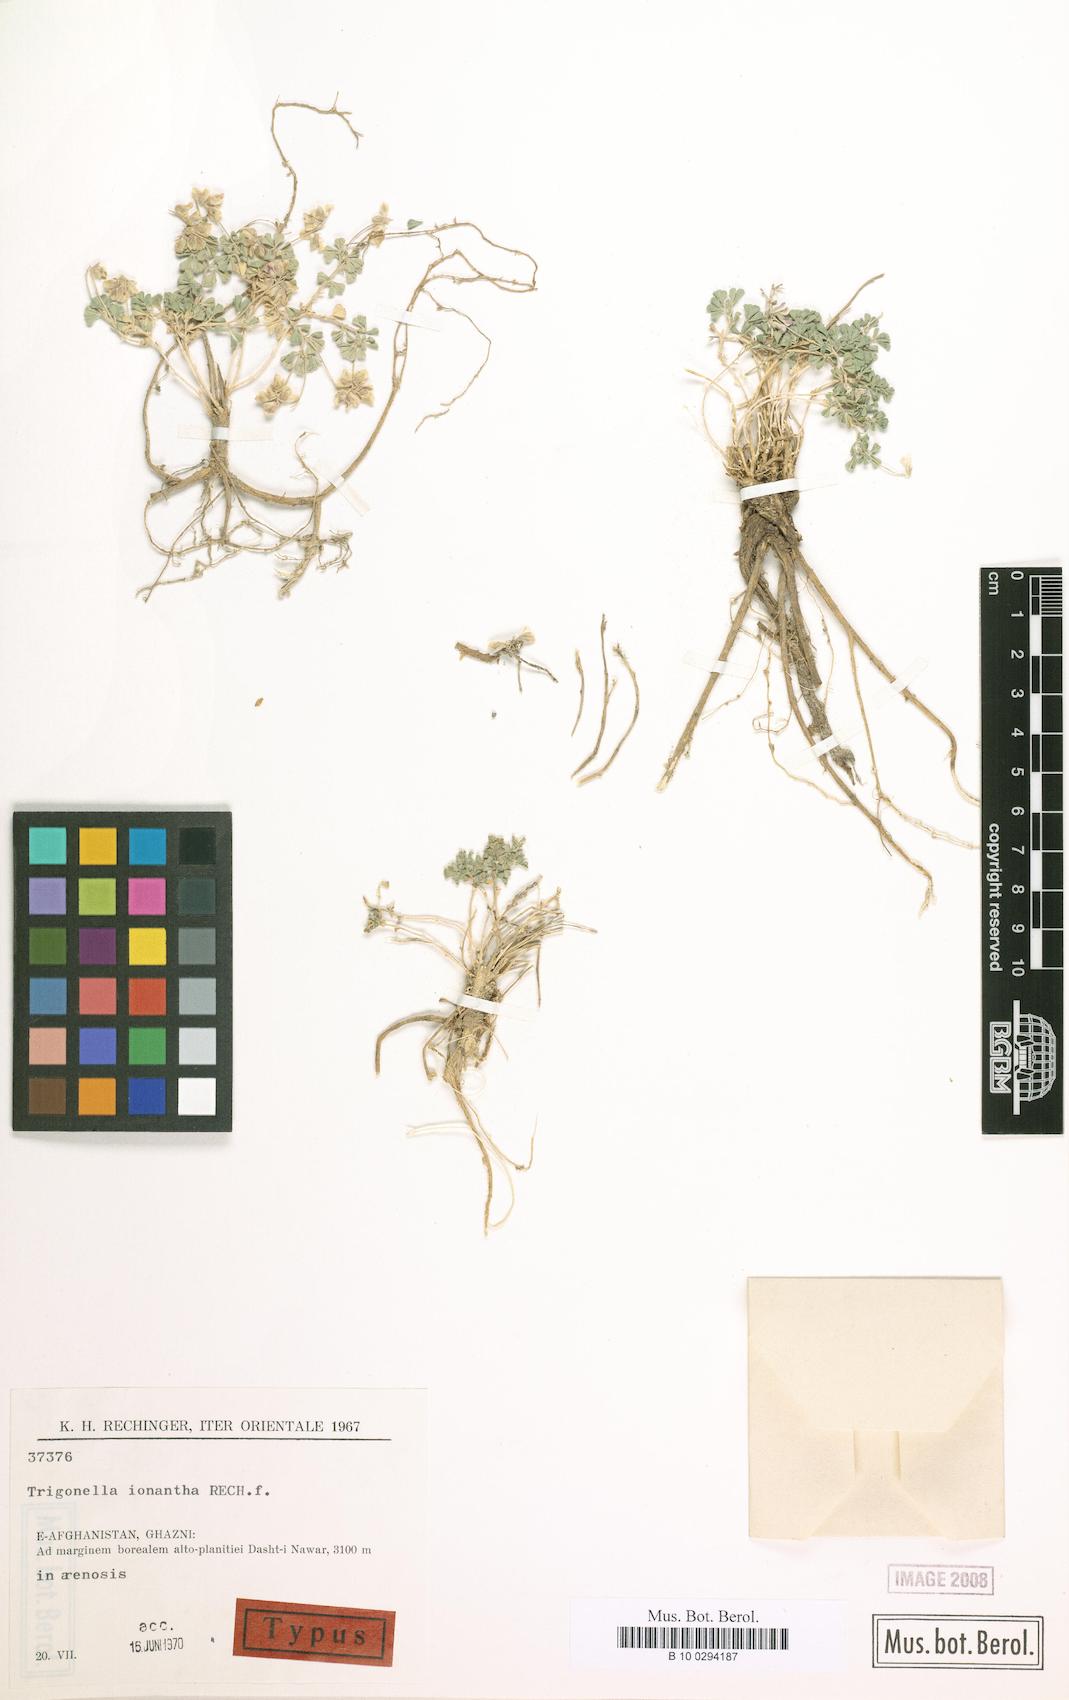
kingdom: Plantae
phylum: Tracheophyta
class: Magnoliopsida
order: Fabales
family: Fabaceae
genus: Trigonella
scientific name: Trigonella ionantha
